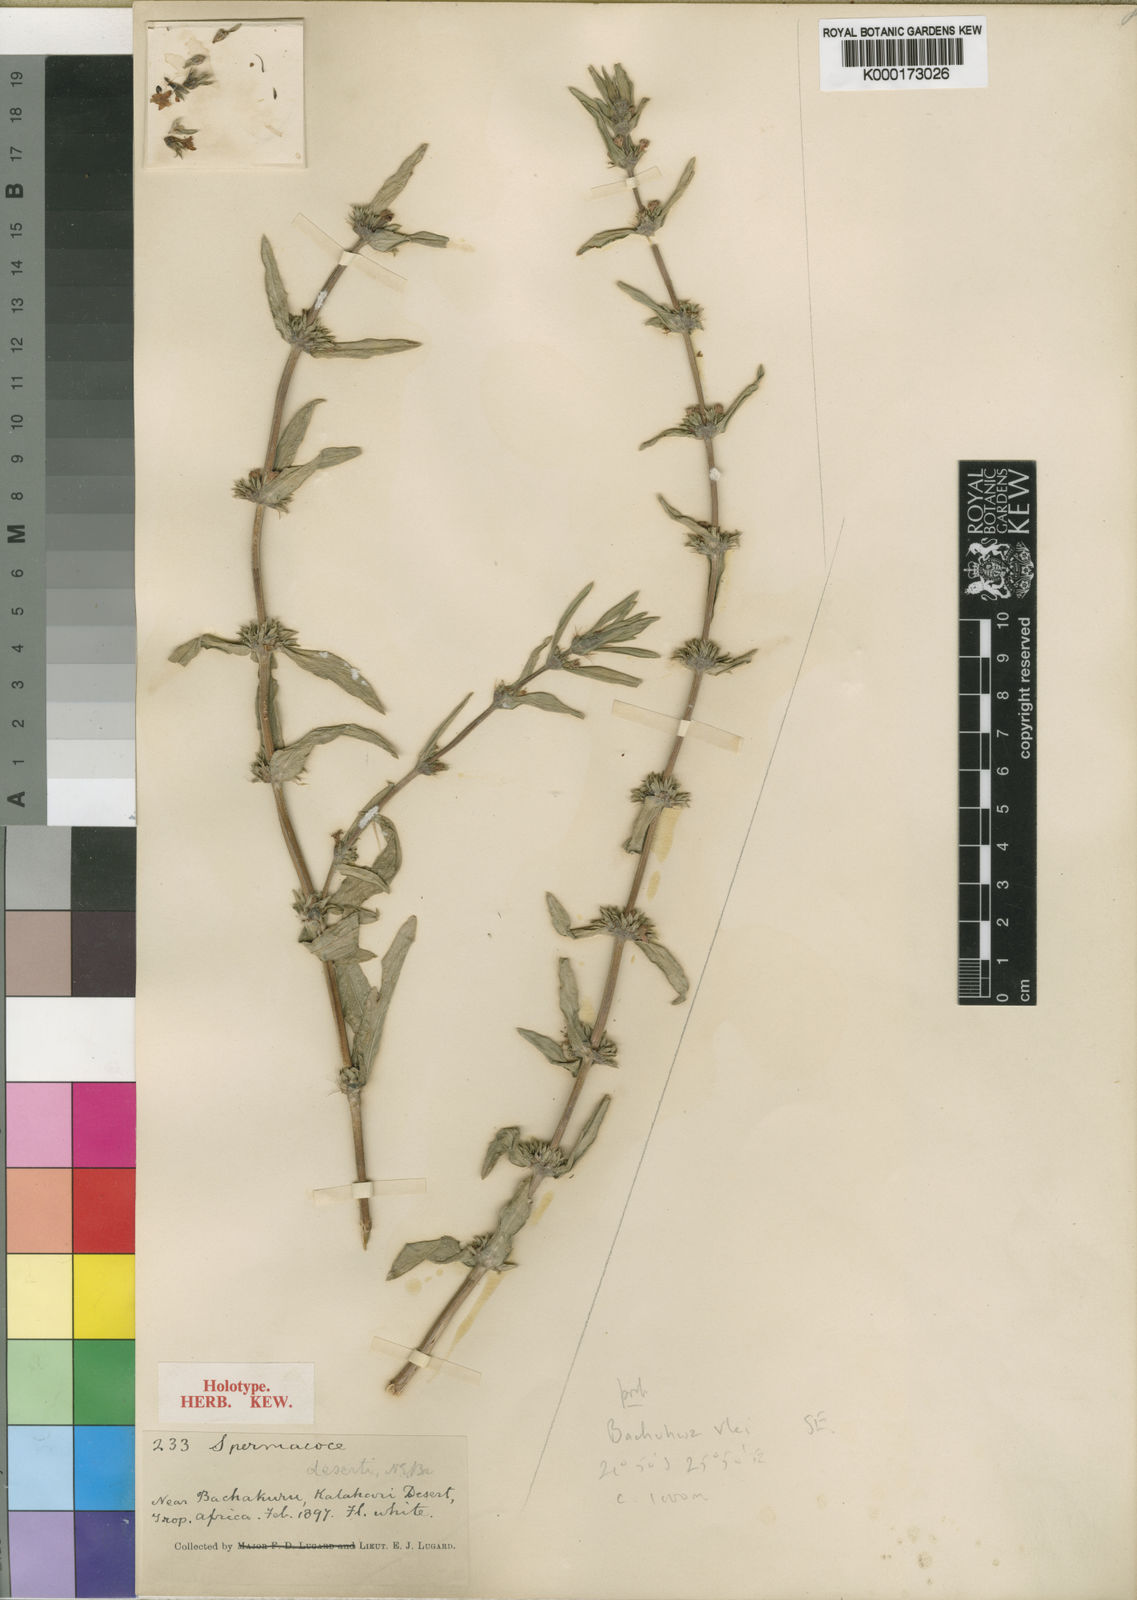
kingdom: Plantae
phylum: Tracheophyta
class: Magnoliopsida
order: Gentianales
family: Rubiaceae
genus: Spermacoce
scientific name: Spermacoce deserti
